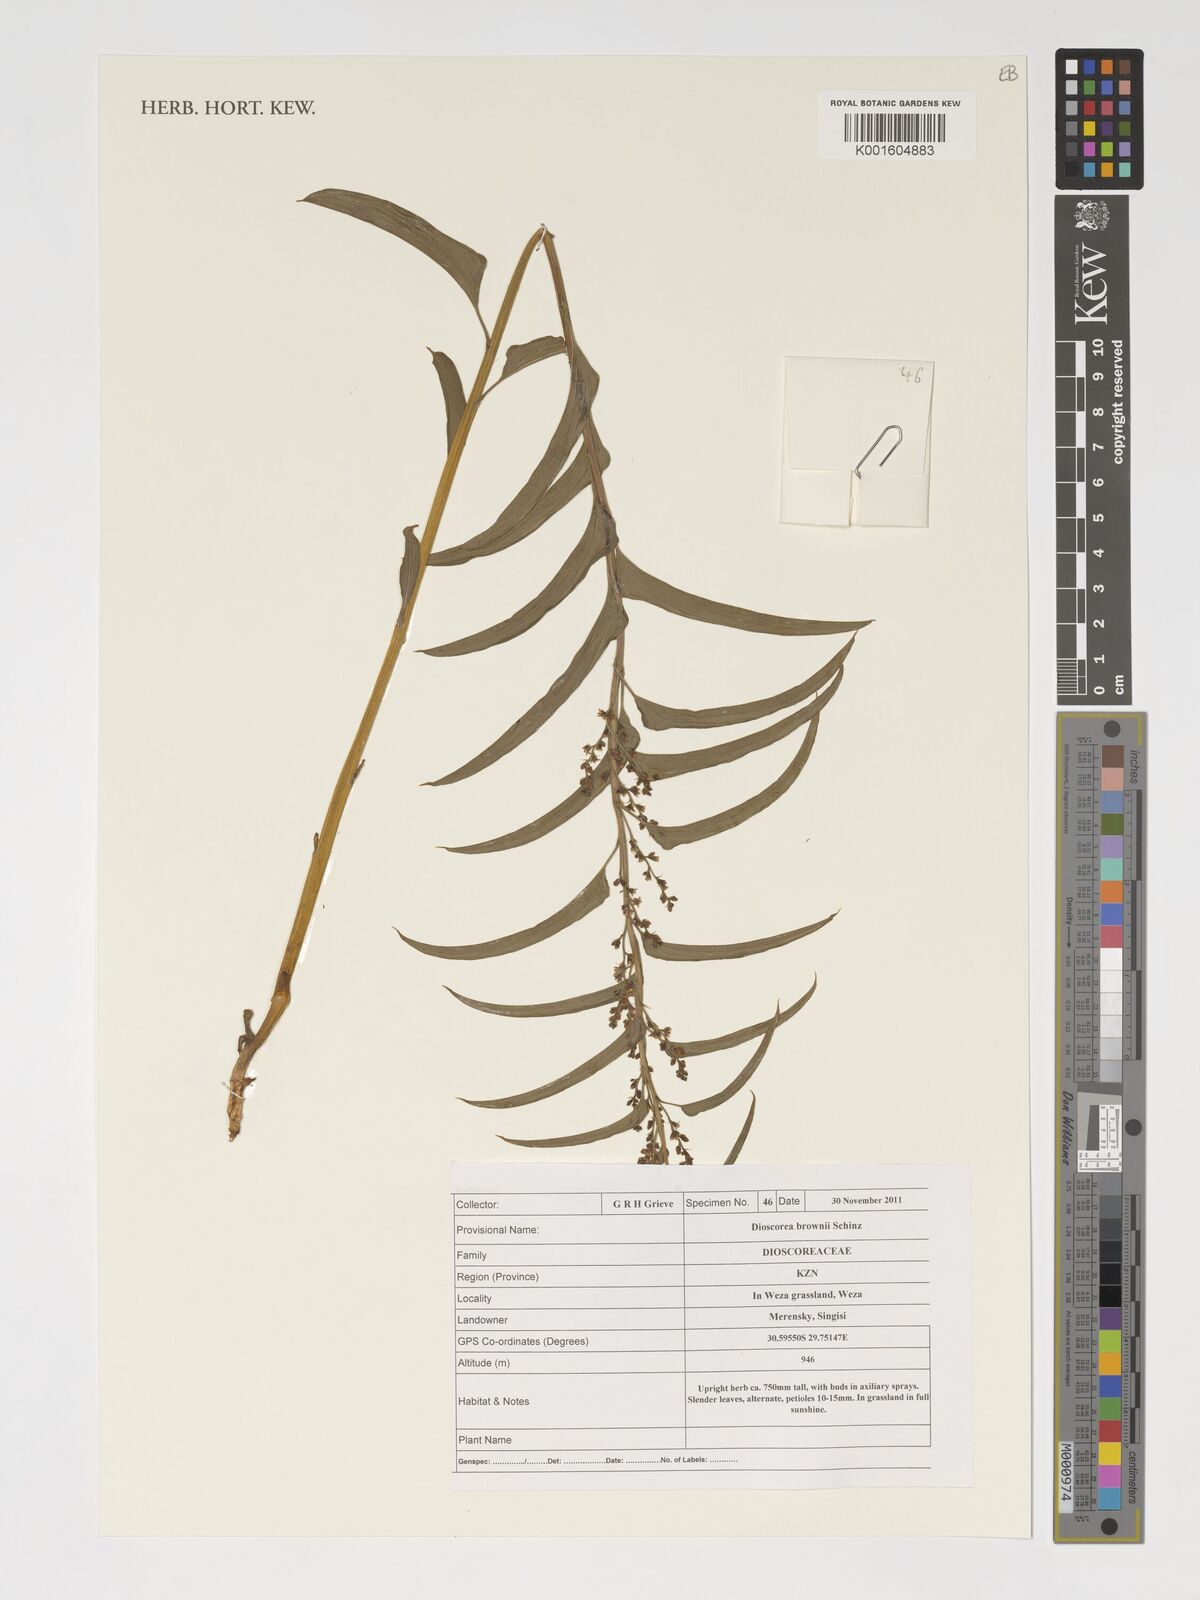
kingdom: Plantae
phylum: Tracheophyta
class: Liliopsida
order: Dioscoreales
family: Dioscoreaceae
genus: Dioscorea
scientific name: Dioscorea brownii
